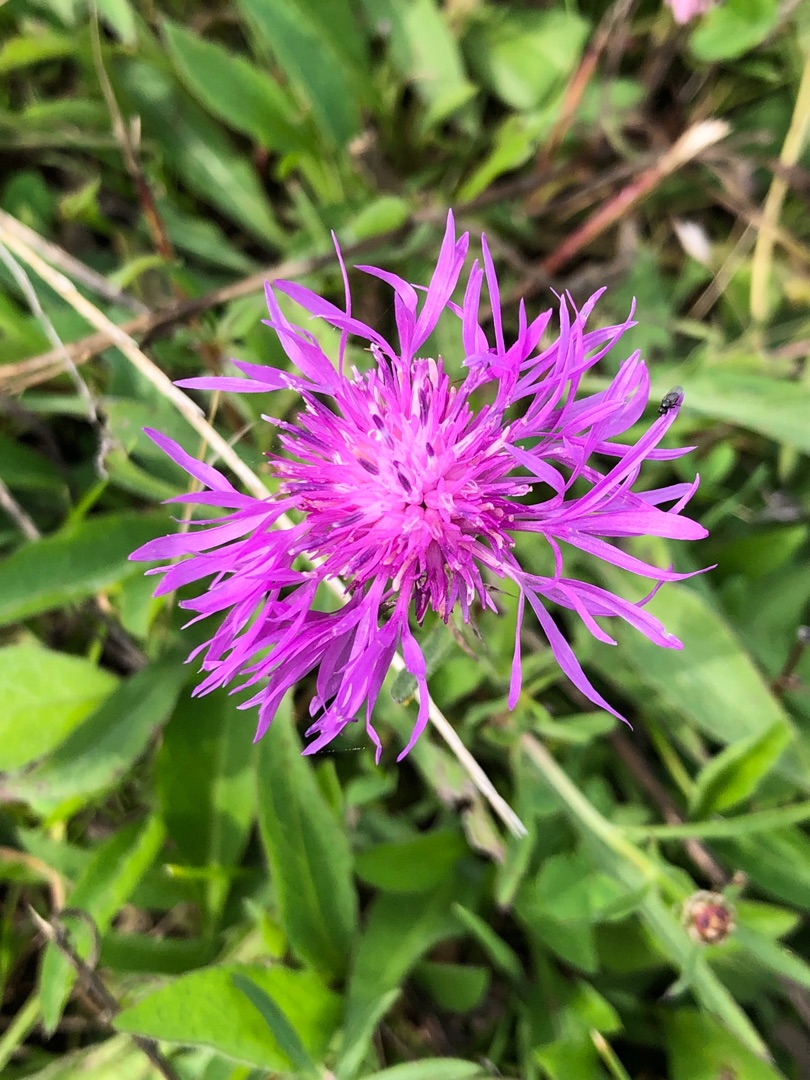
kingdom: Plantae
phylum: Tracheophyta
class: Magnoliopsida
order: Asterales
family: Asteraceae
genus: Centaurea
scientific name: Centaurea jacea
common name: Almindelig knopurt
